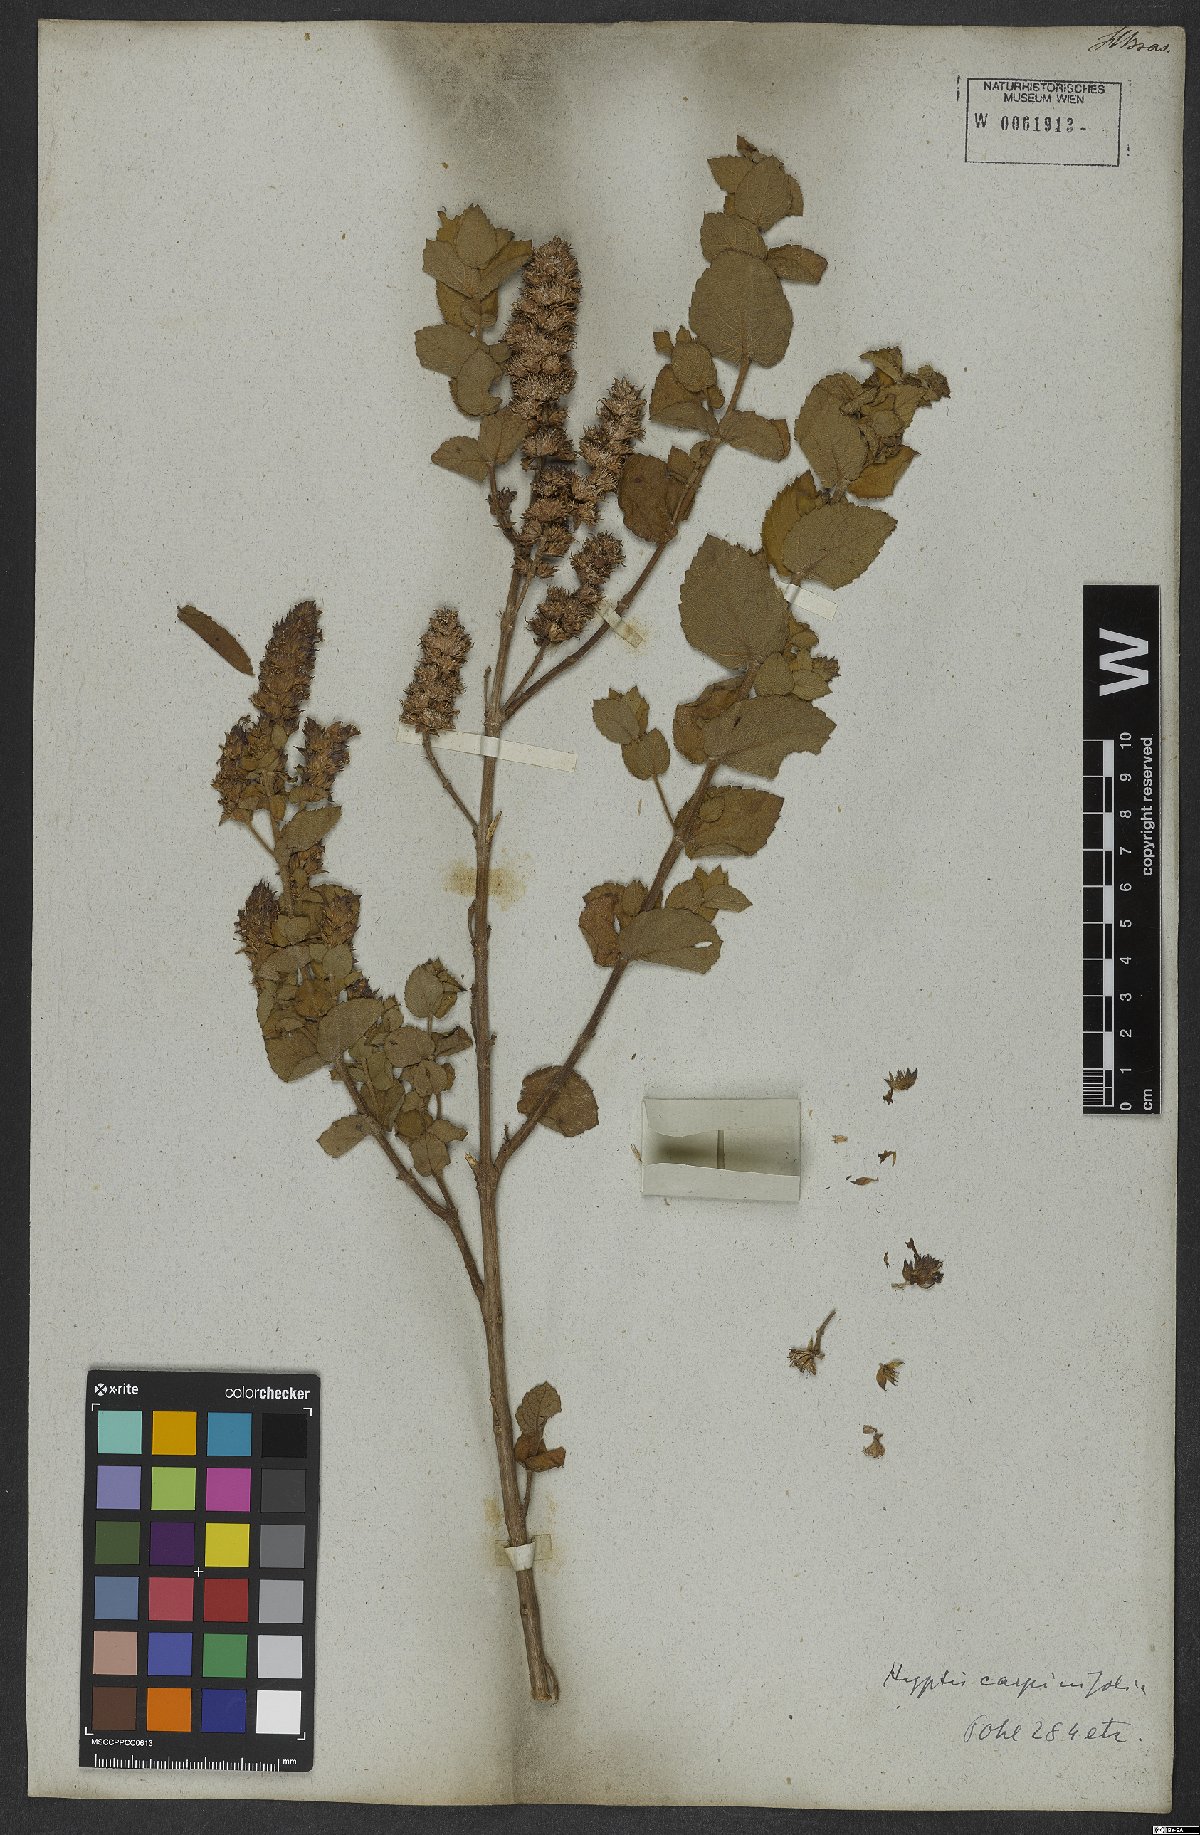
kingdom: Plantae
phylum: Tracheophyta
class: Magnoliopsida
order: Lamiales
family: Lamiaceae
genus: Cantinoa
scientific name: Cantinoa carpinifolia
